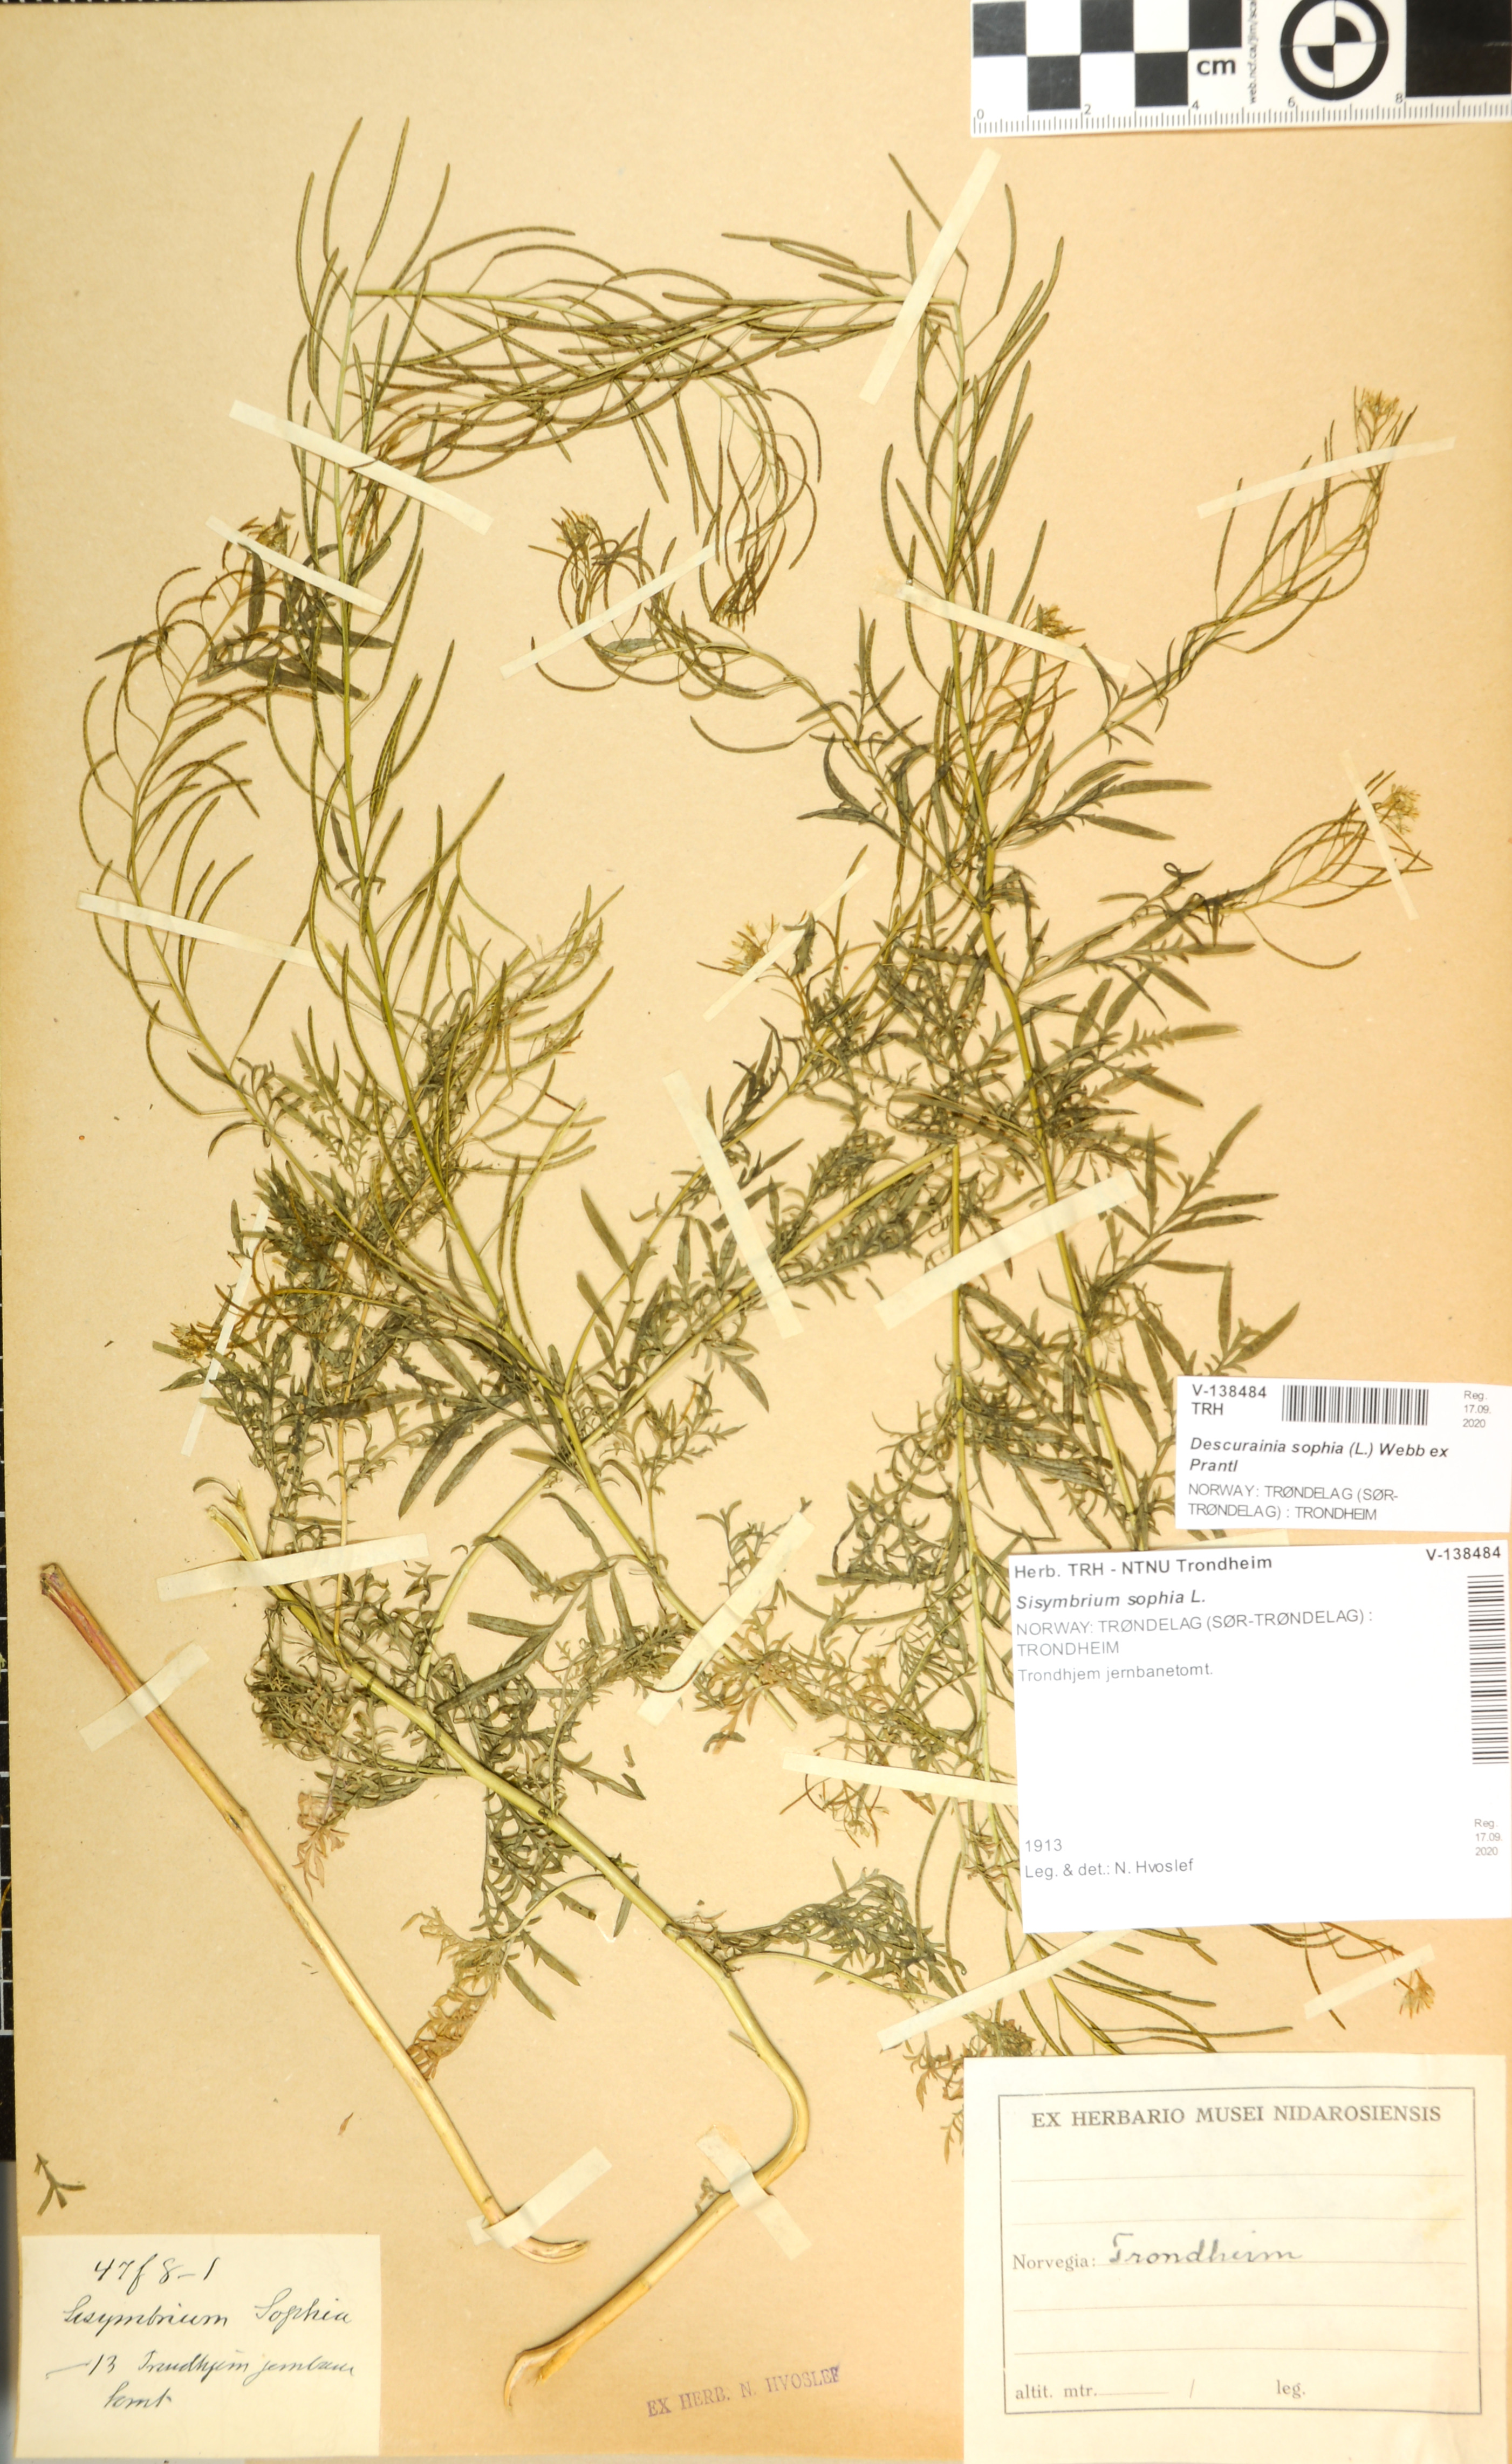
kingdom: Plantae
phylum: Tracheophyta
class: Magnoliopsida
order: Brassicales
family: Brassicaceae
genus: Descurainia
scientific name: Descurainia sophia
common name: Flixweed
